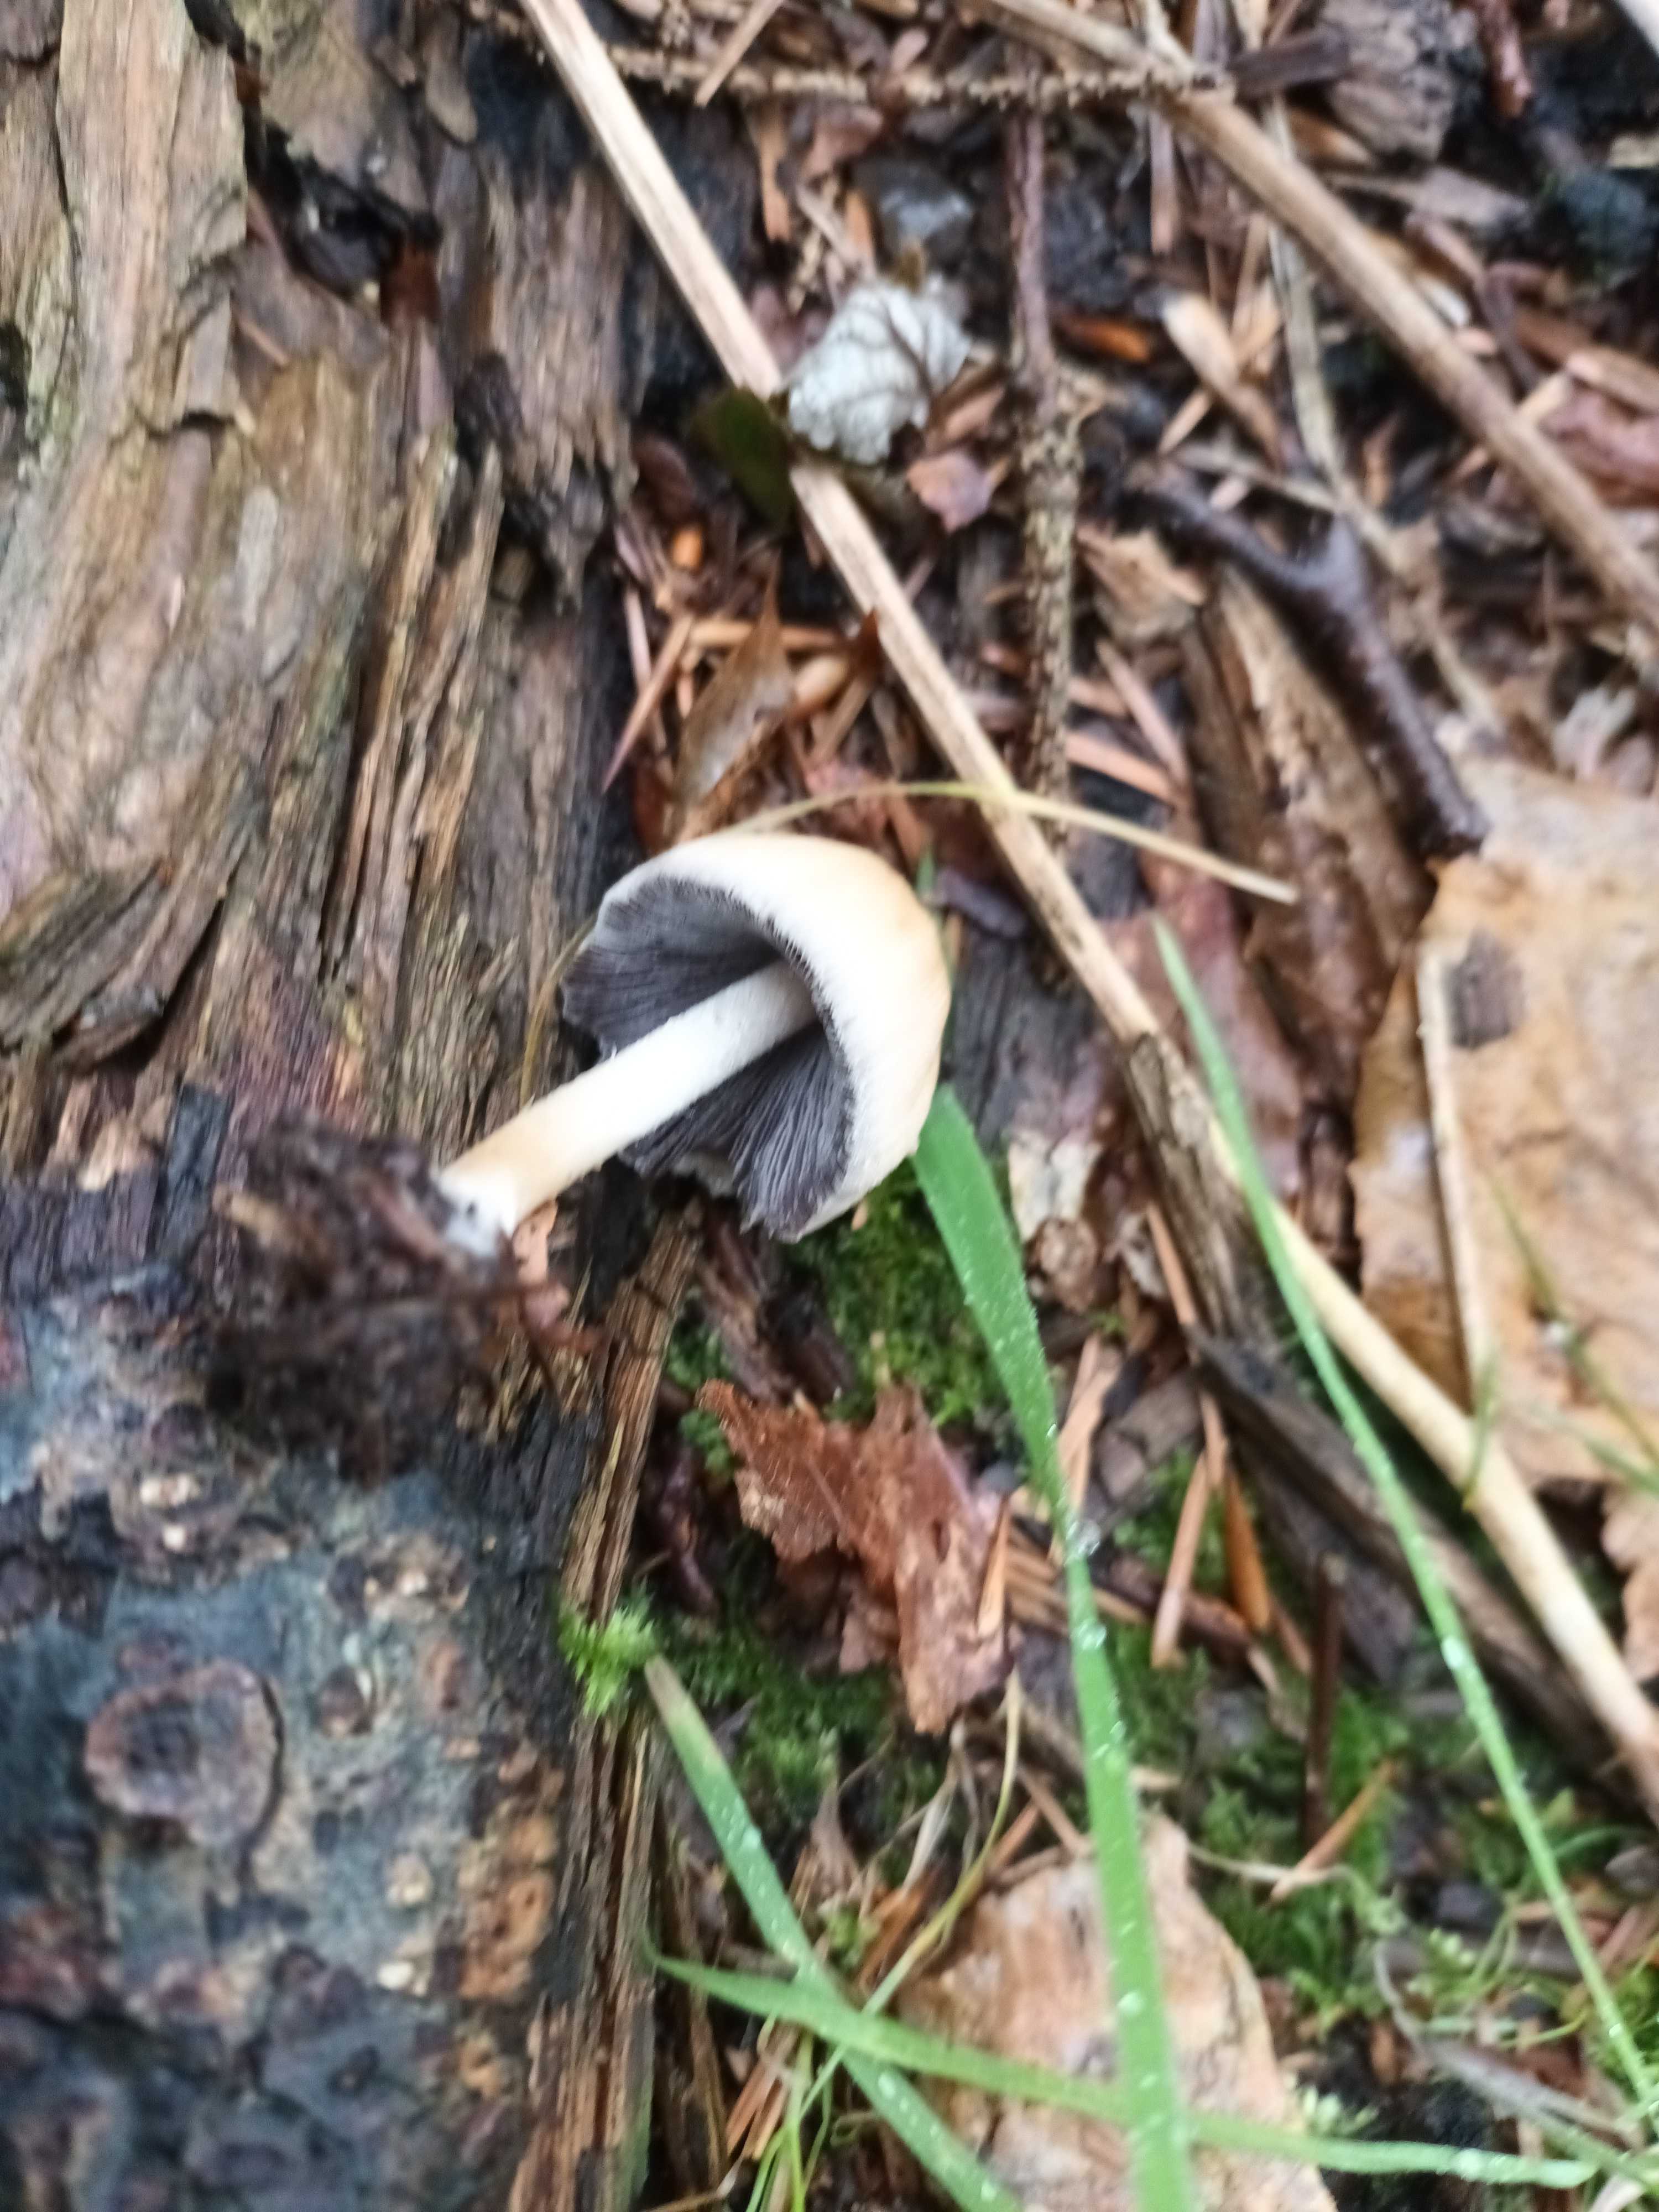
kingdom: Fungi
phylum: Basidiomycota
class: Agaricomycetes
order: Agaricales
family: Psathyrellaceae
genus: Coprinellus
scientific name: Coprinellus micaceus
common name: glimmer-blækhat
